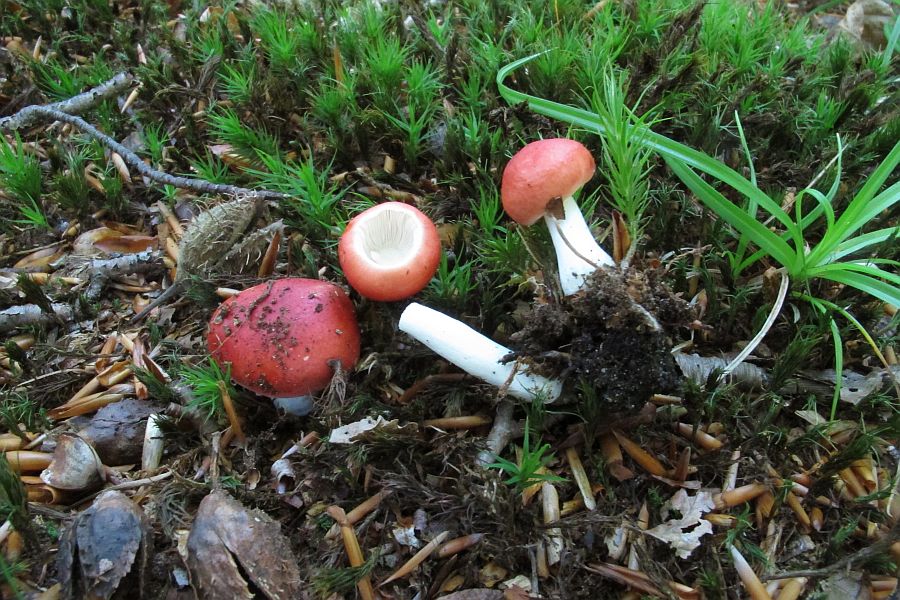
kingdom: Fungi
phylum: Basidiomycota
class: Agaricomycetes
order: Russulales
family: Russulaceae
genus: Russula
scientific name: Russula nobilis
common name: lille gift-skørhat
